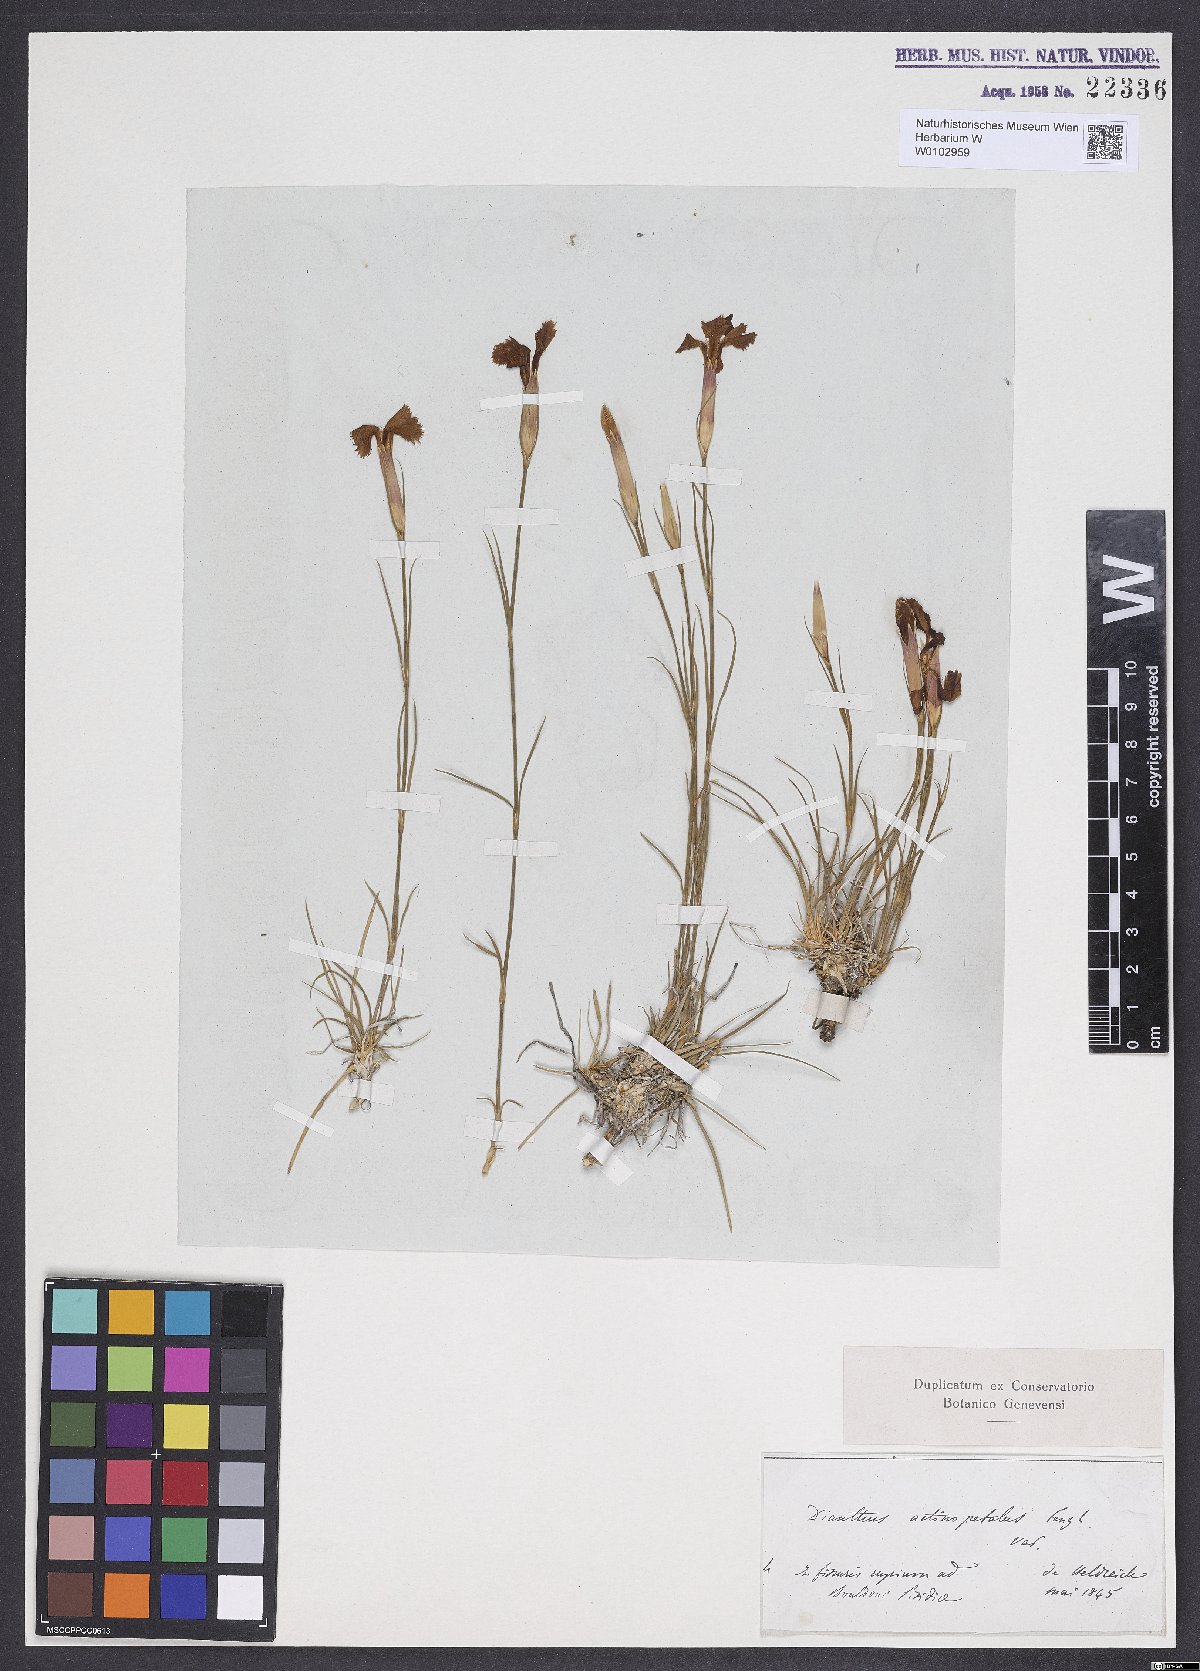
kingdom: Plantae
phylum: Tracheophyta
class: Magnoliopsida
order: Caryophyllales
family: Caryophyllaceae
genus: Dianthus
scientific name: Dianthus elegans
